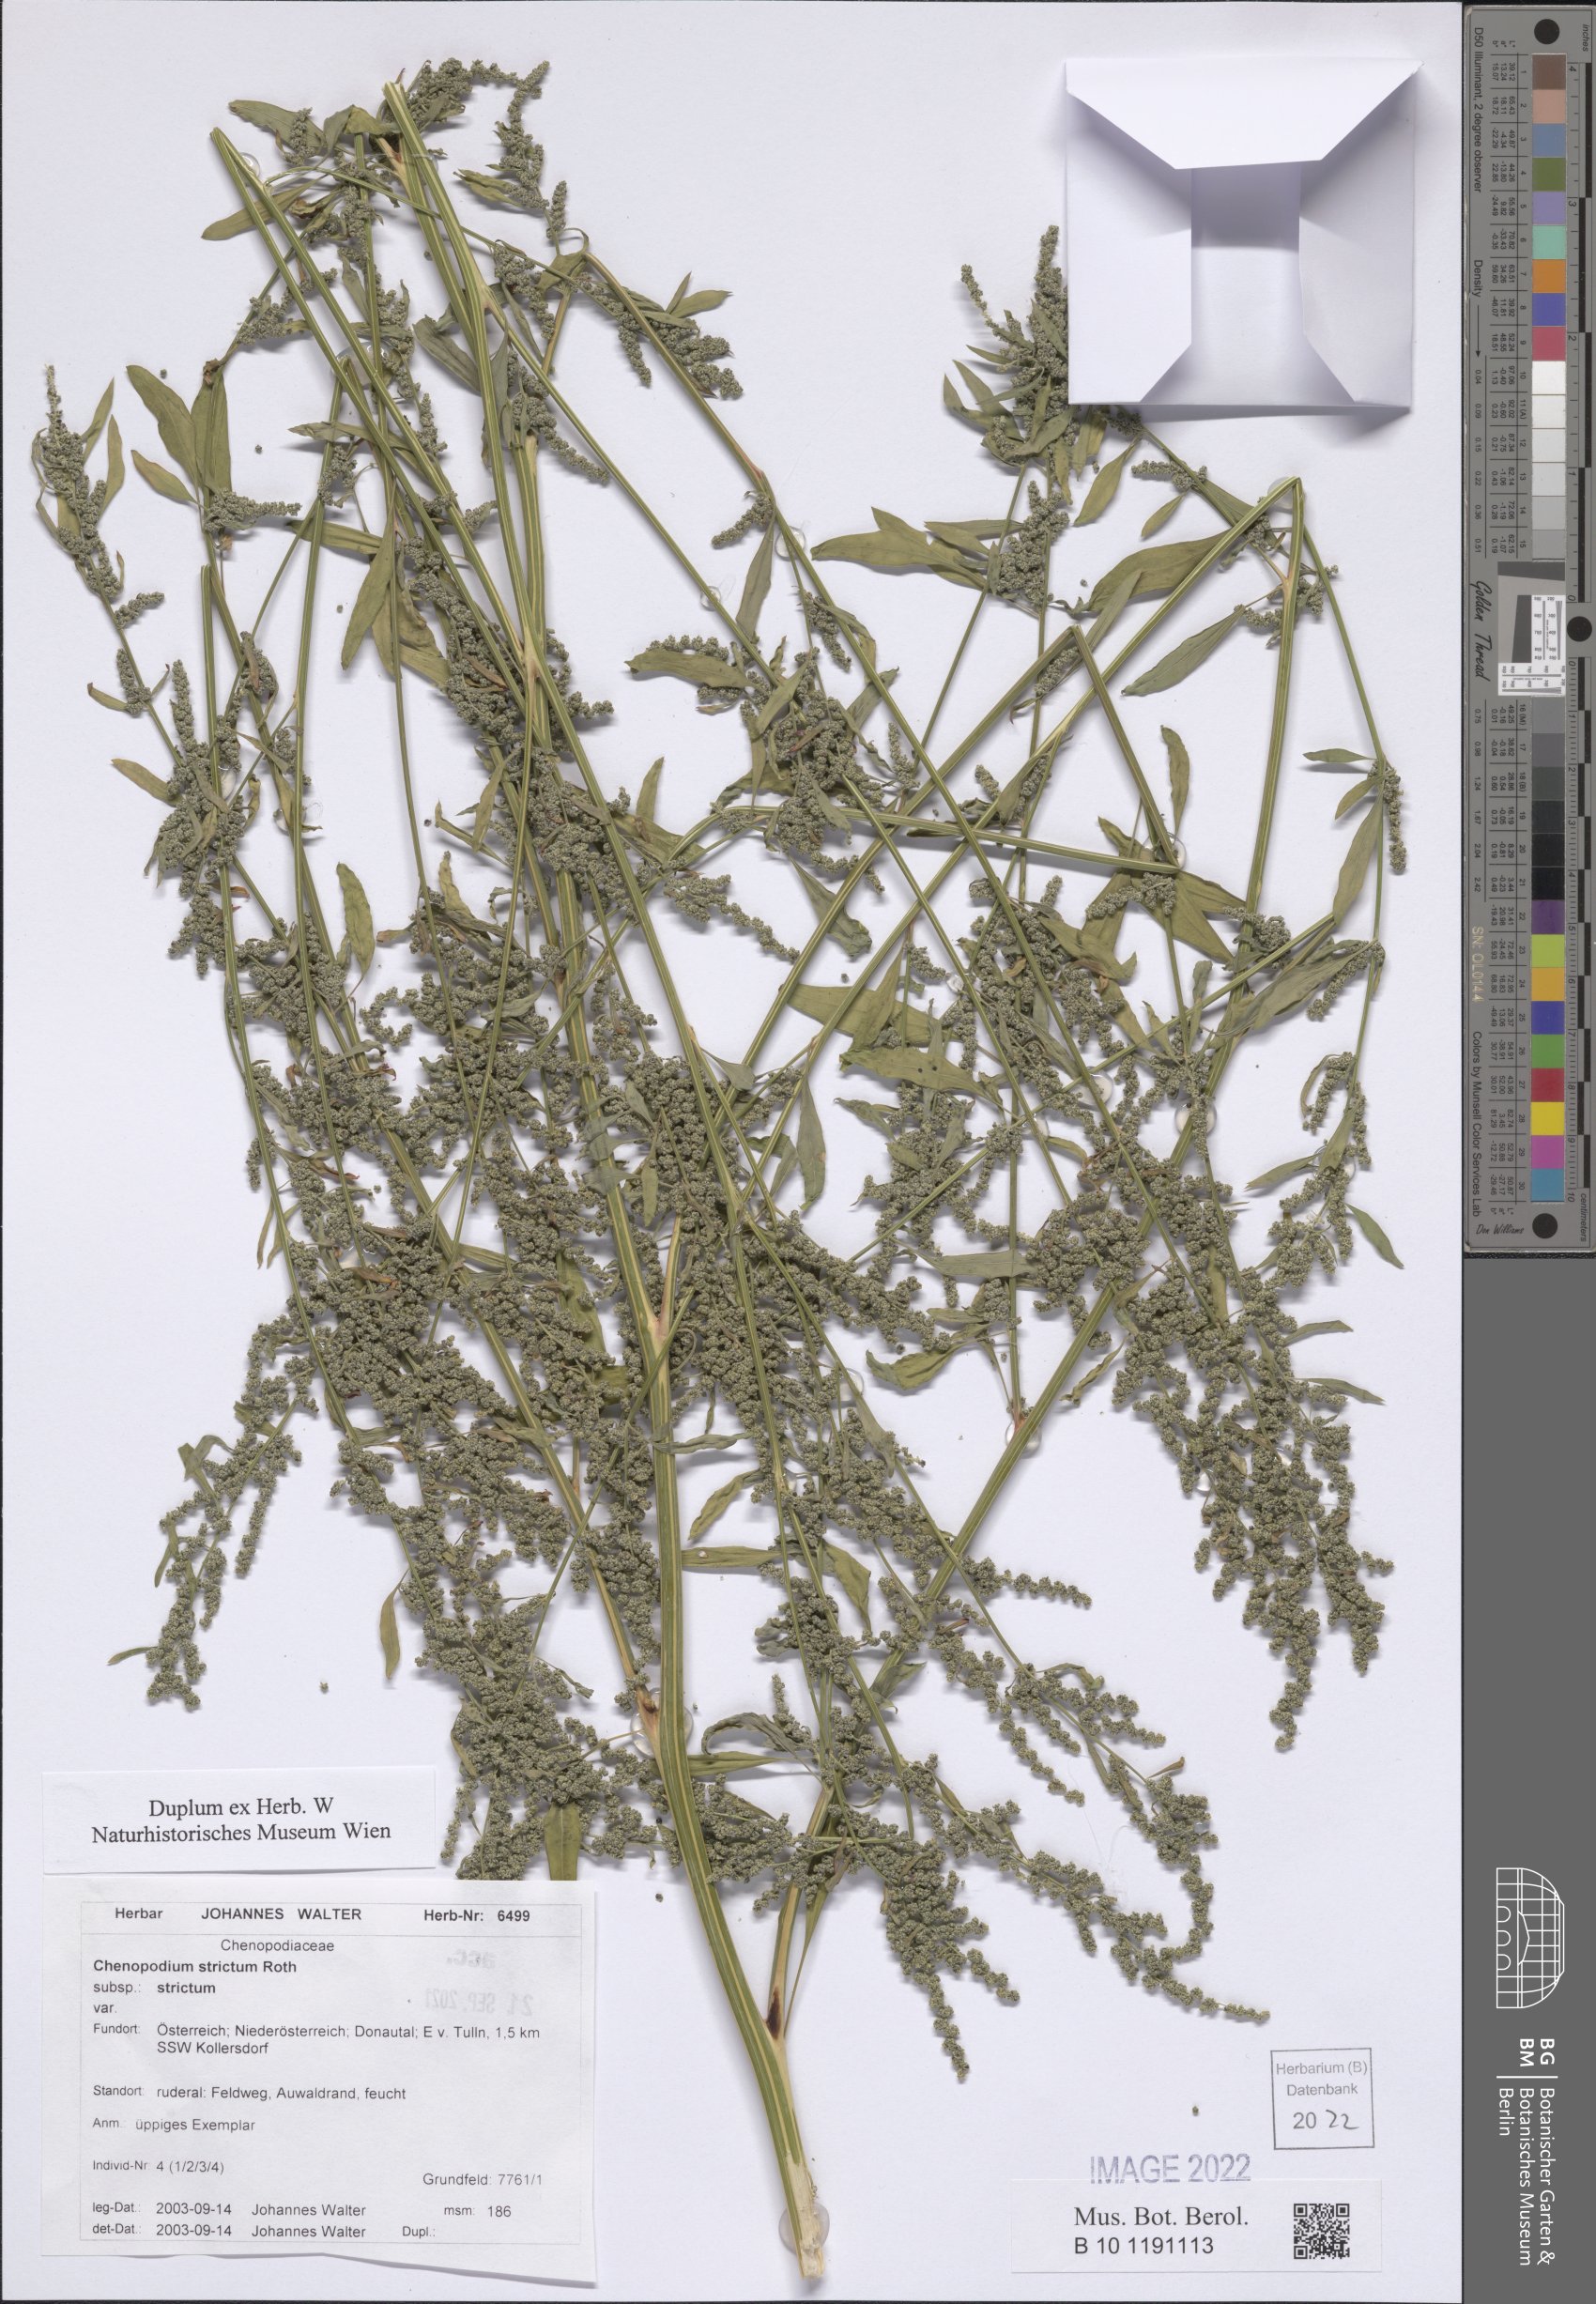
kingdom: Plantae
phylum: Tracheophyta
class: Magnoliopsida
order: Caryophyllales
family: Amaranthaceae
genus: Chenopodium
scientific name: Chenopodium album
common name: Fat-hen
